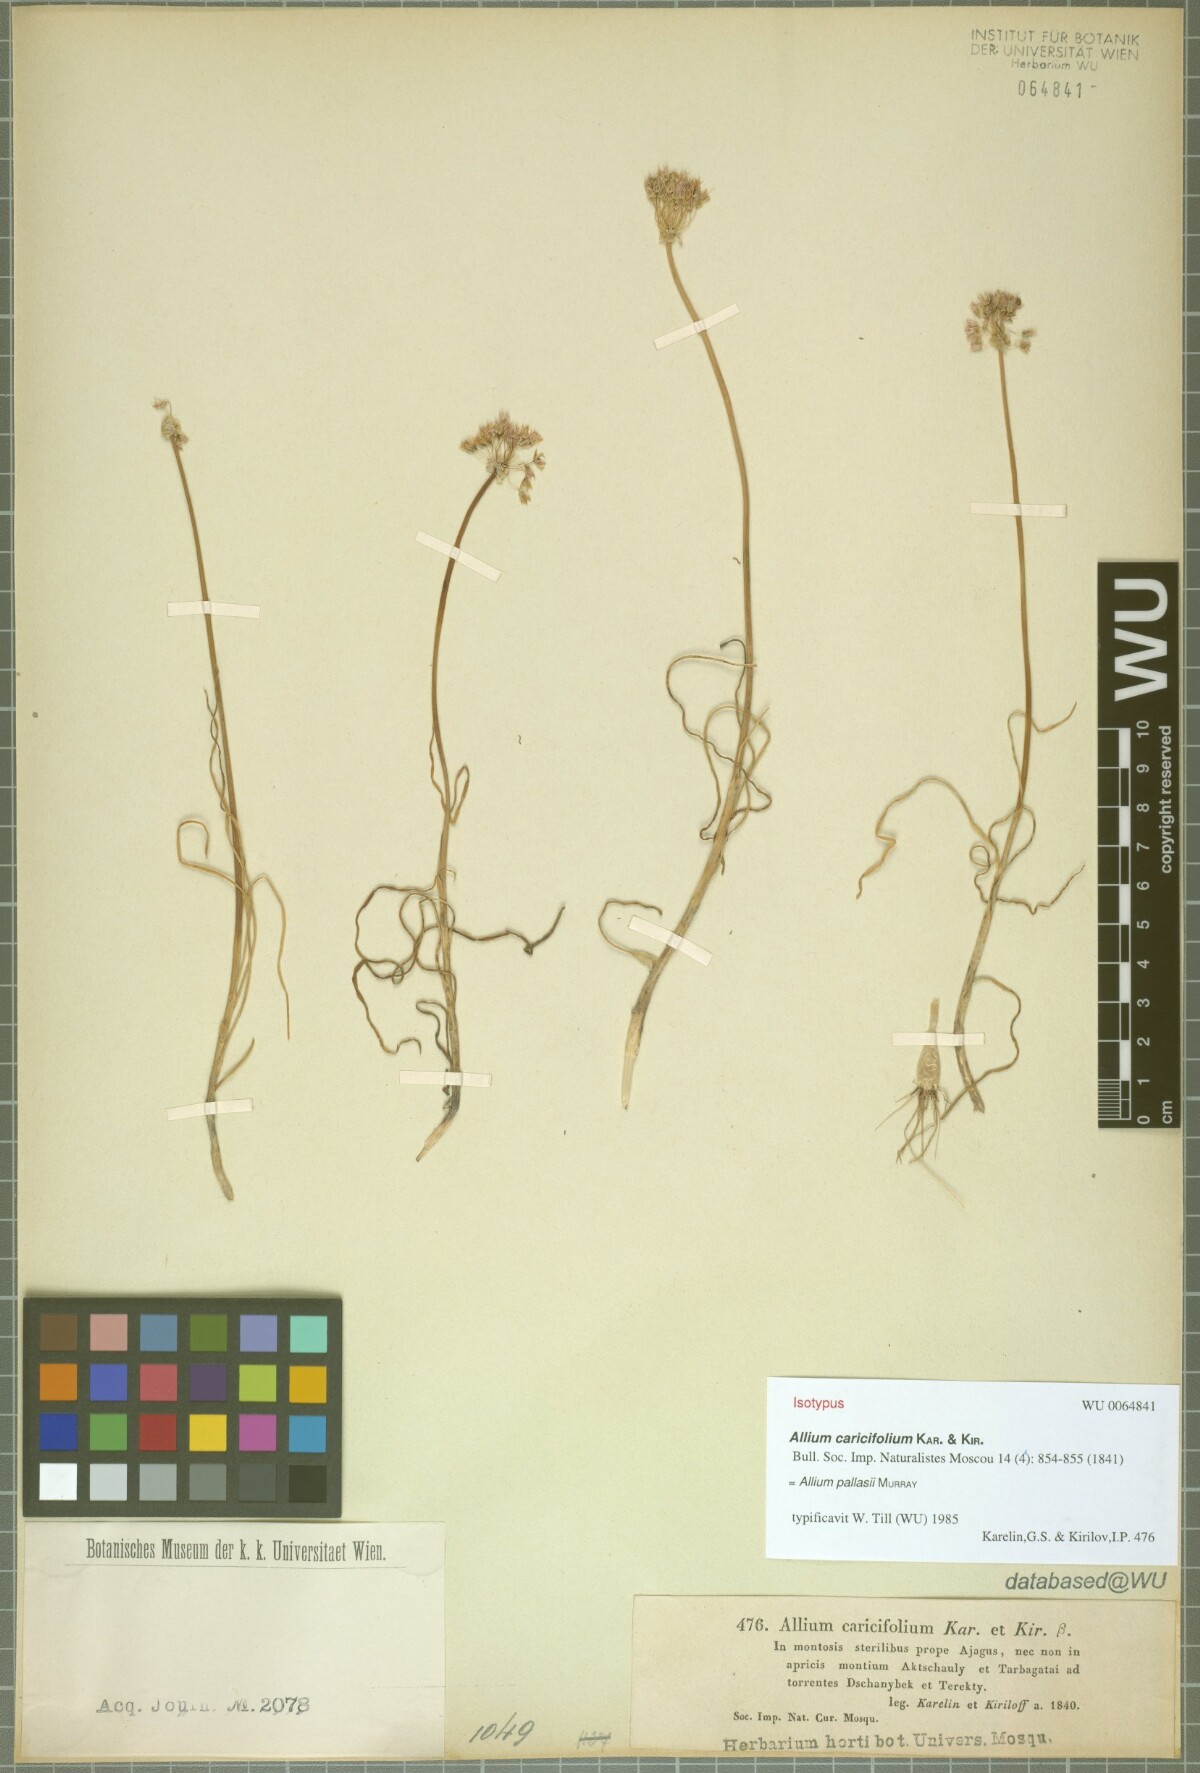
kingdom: Plantae
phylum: Tracheophyta
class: Liliopsida
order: Asparagales
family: Amaryllidaceae
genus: Allium
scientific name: Allium pallasii
